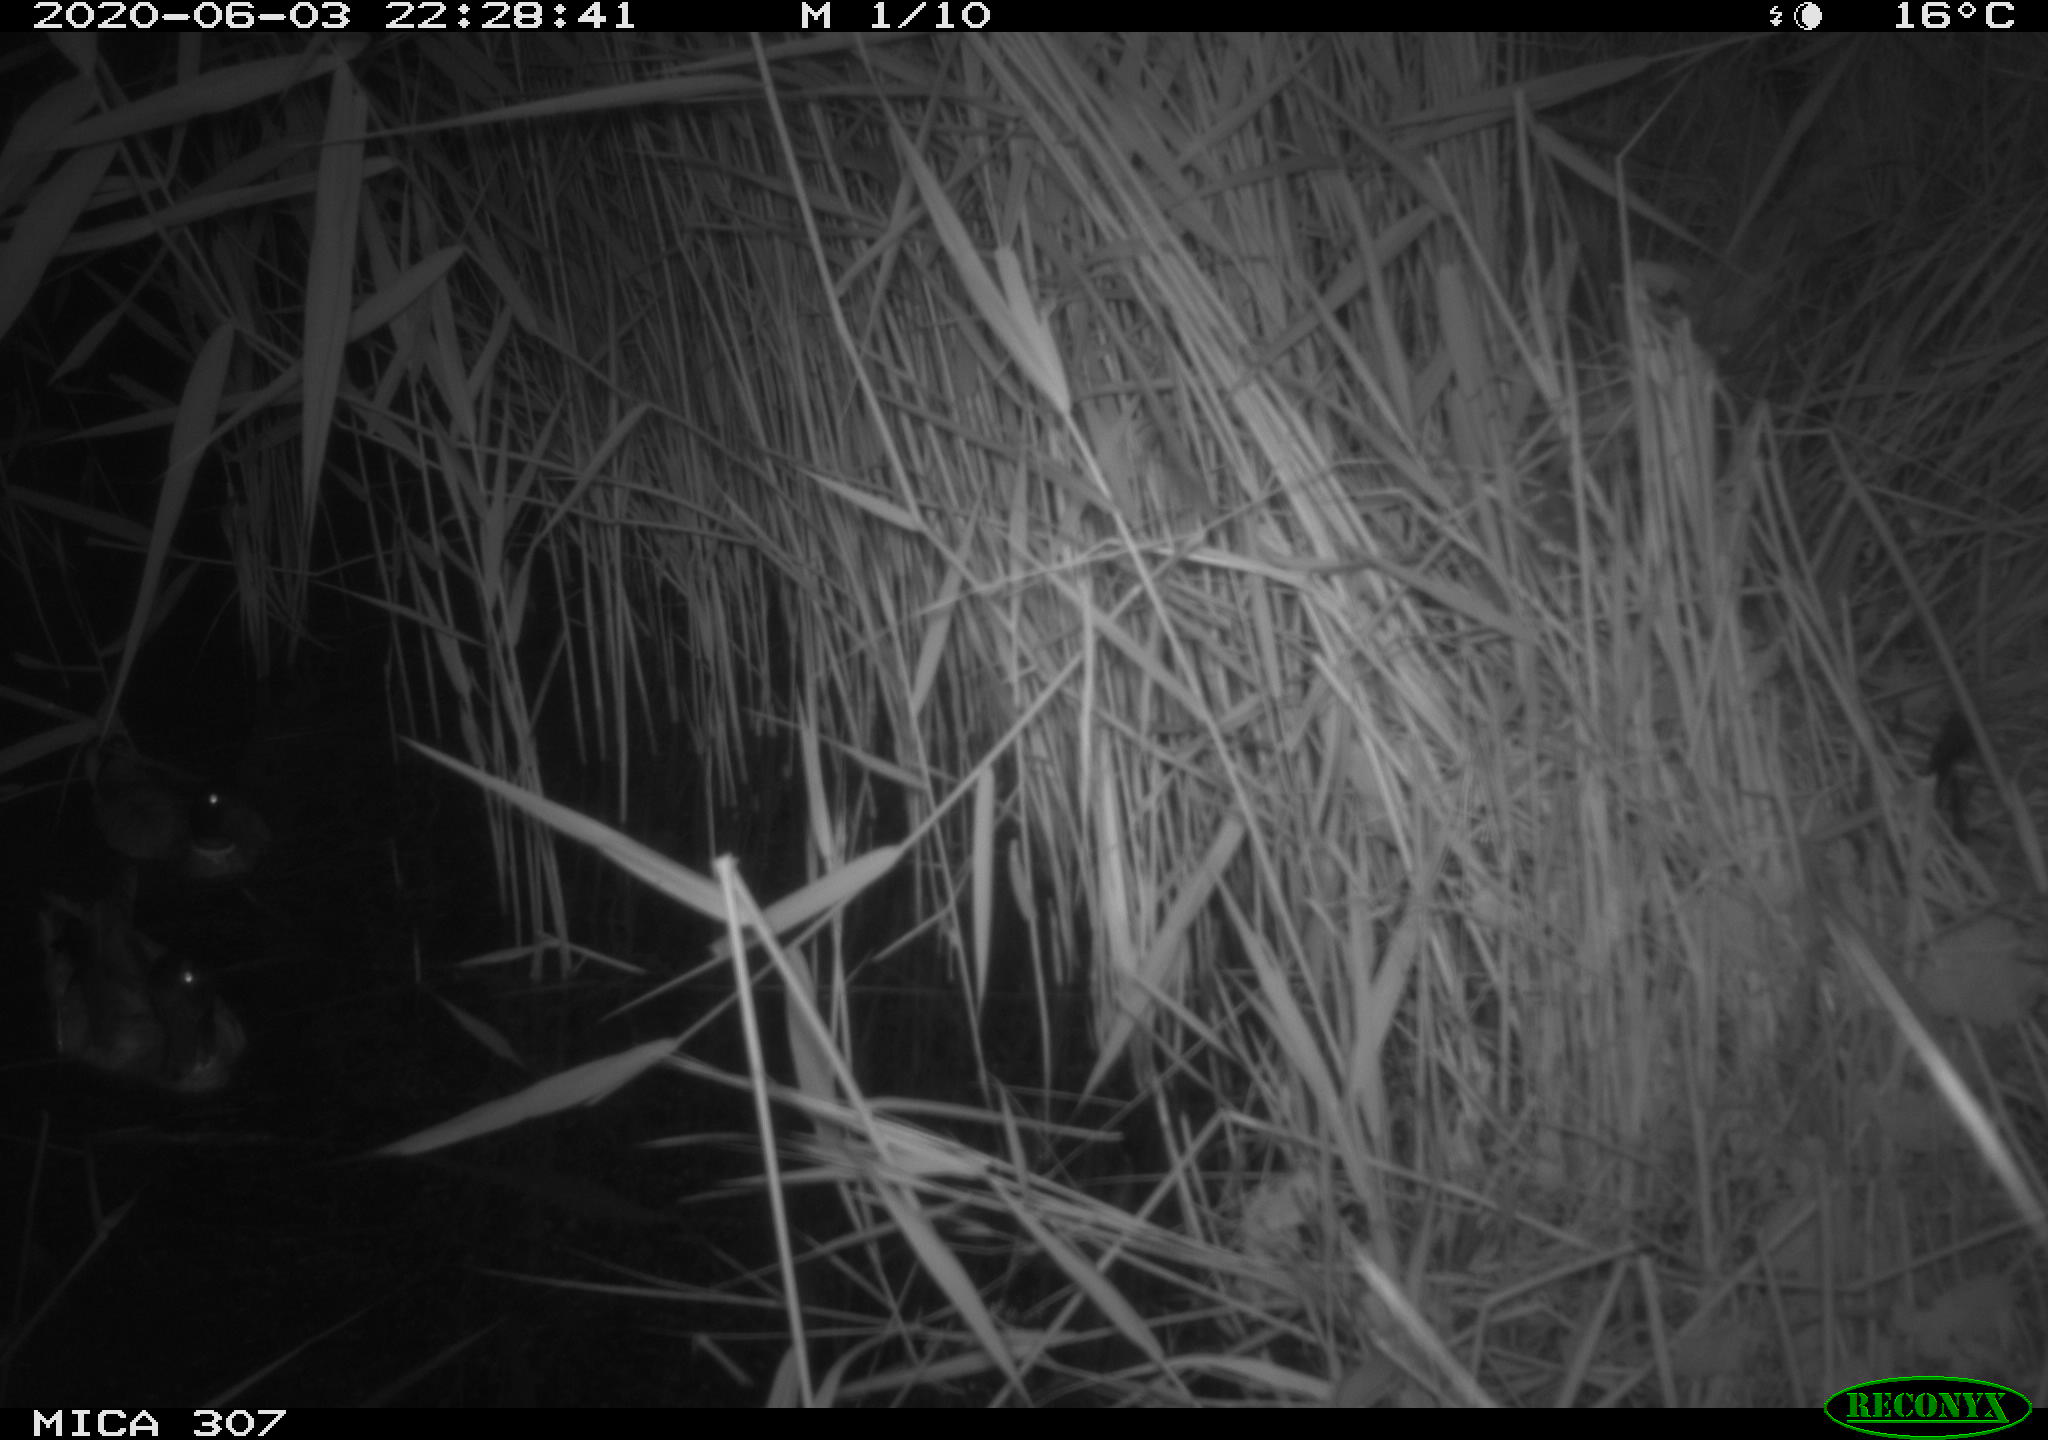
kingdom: Animalia
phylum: Chordata
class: Mammalia
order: Rodentia
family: Muridae
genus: Rattus
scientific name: Rattus norvegicus
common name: Brown rat
